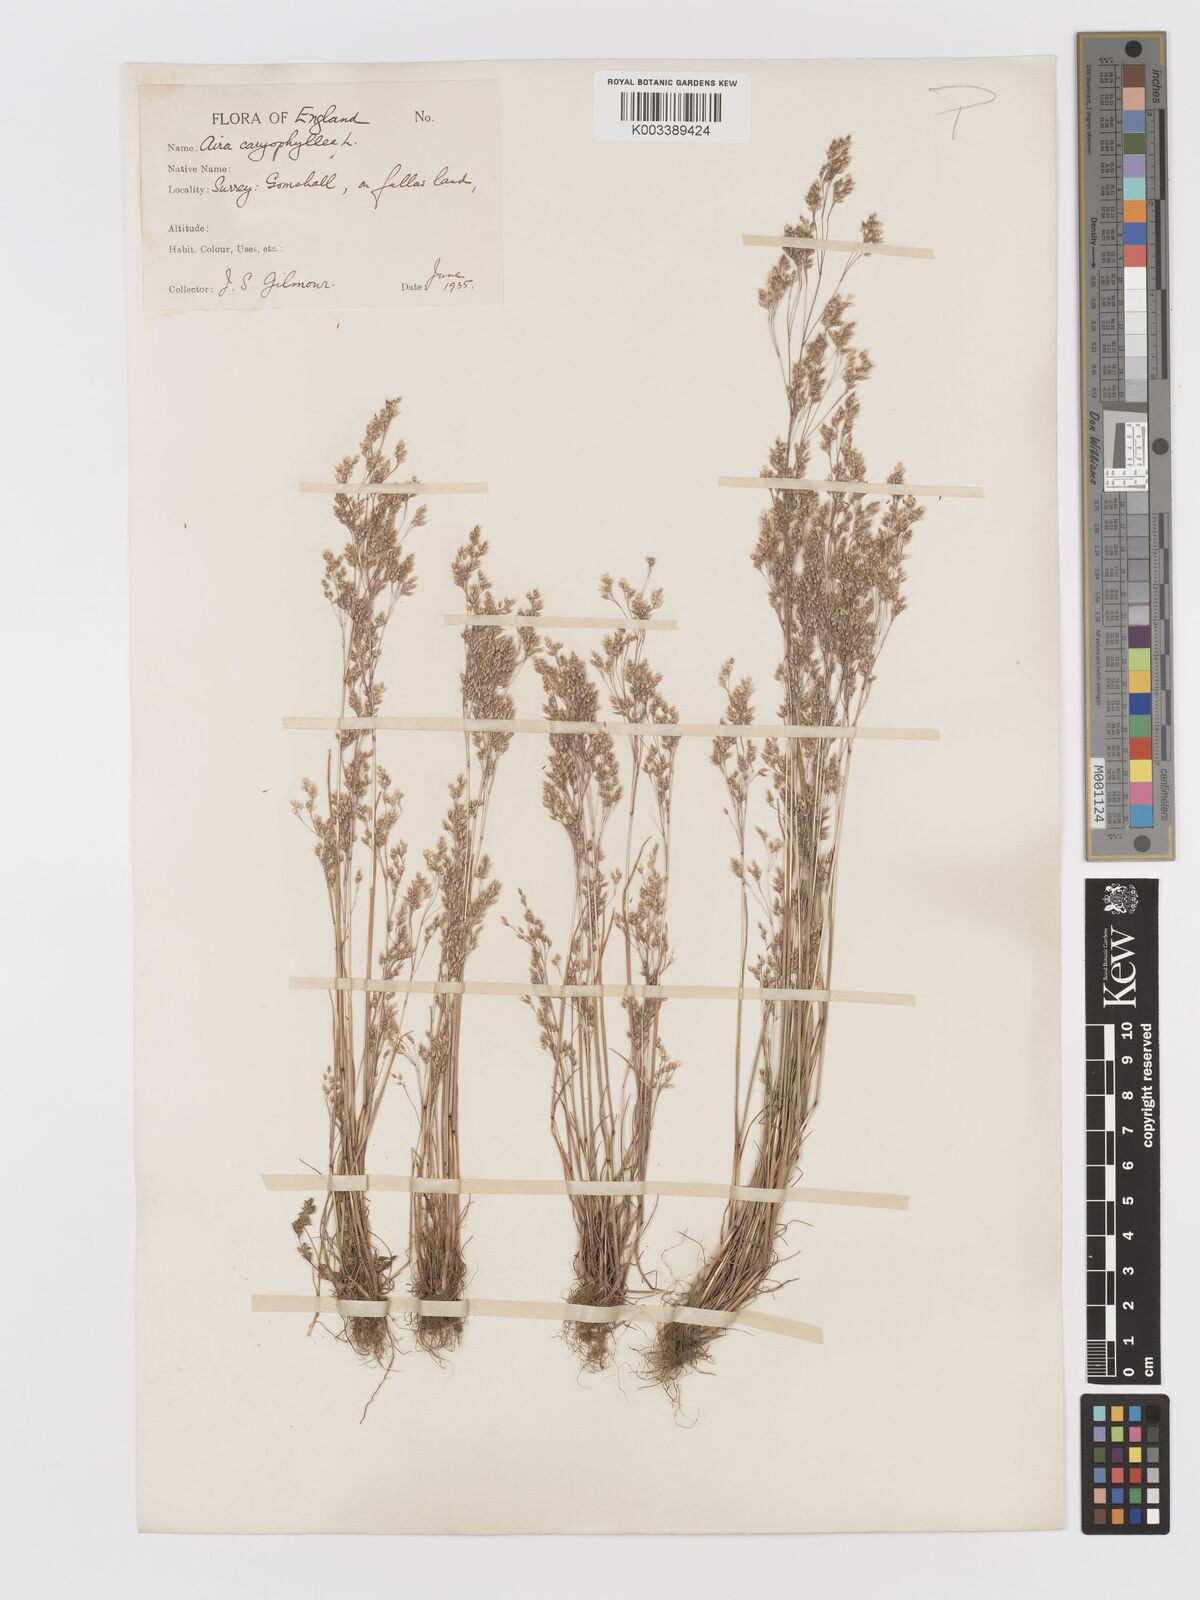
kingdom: Plantae
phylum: Tracheophyta
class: Liliopsida
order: Poales
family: Poaceae
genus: Aira
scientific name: Aira caryophyllea
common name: Silver hairgrass
